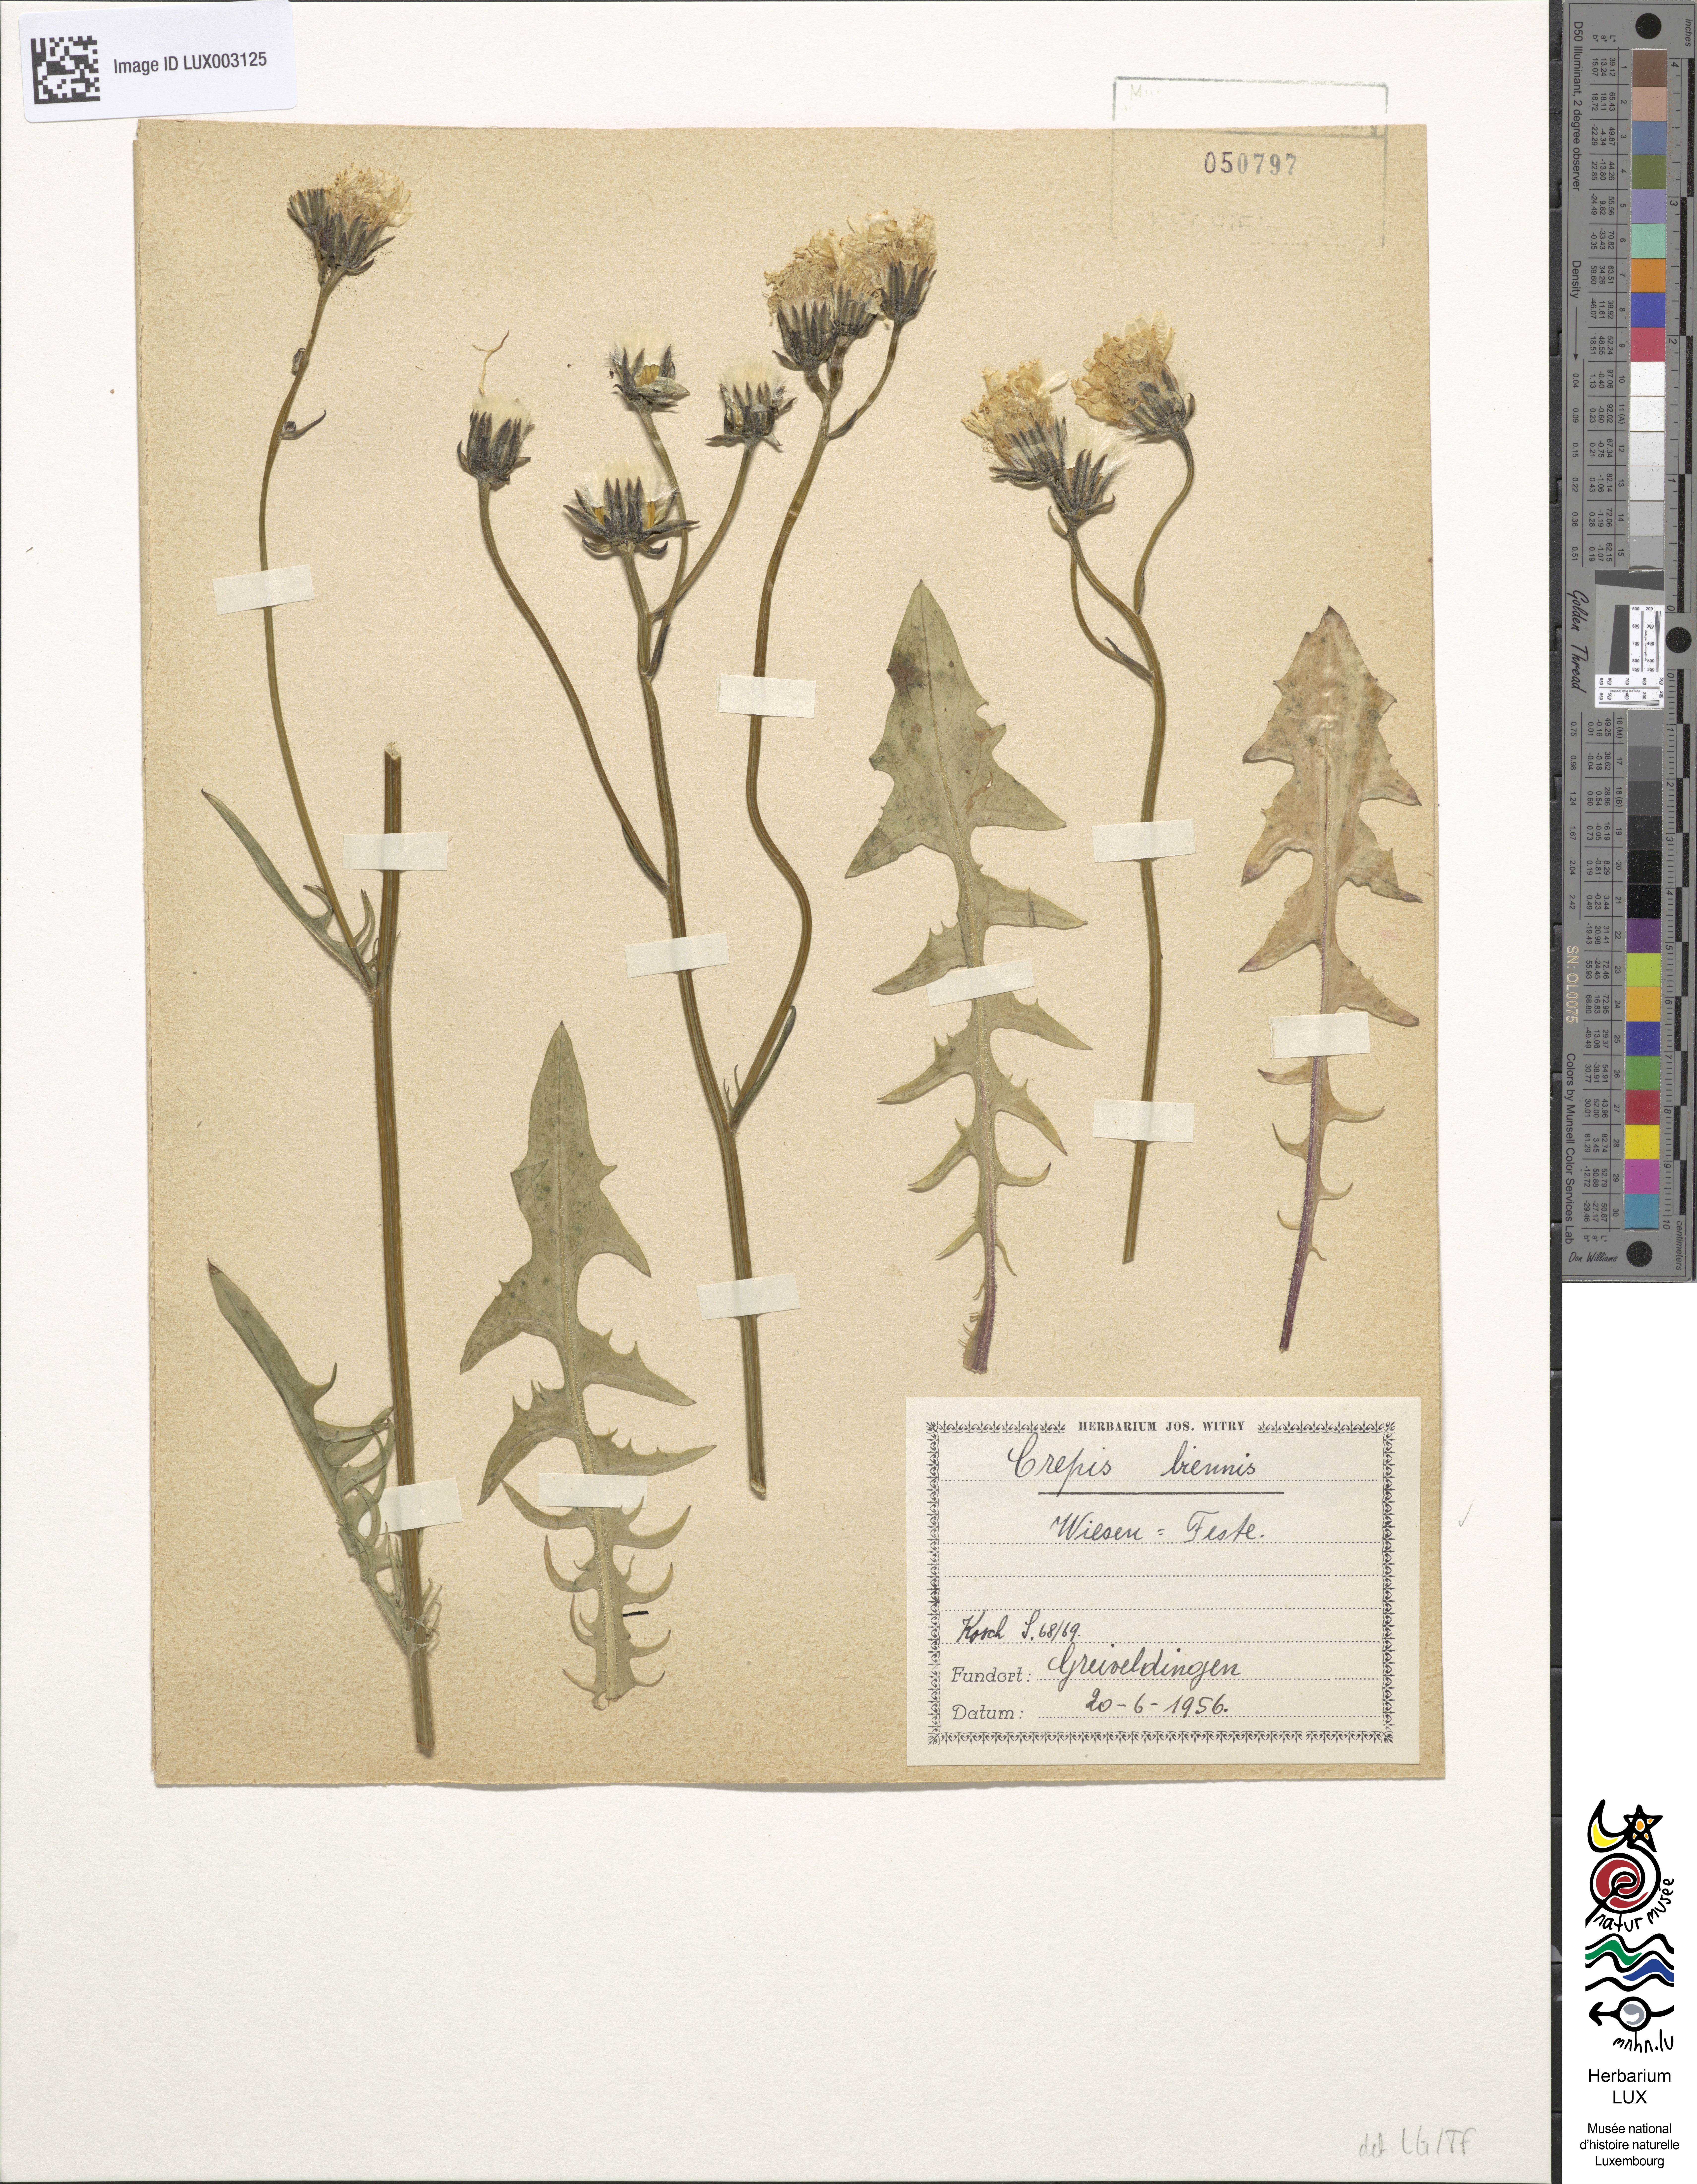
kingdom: Plantae
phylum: Tracheophyta
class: Magnoliopsida
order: Asterales
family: Asteraceae
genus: Crepis
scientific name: Crepis biennis
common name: Rough hawk's-beard
